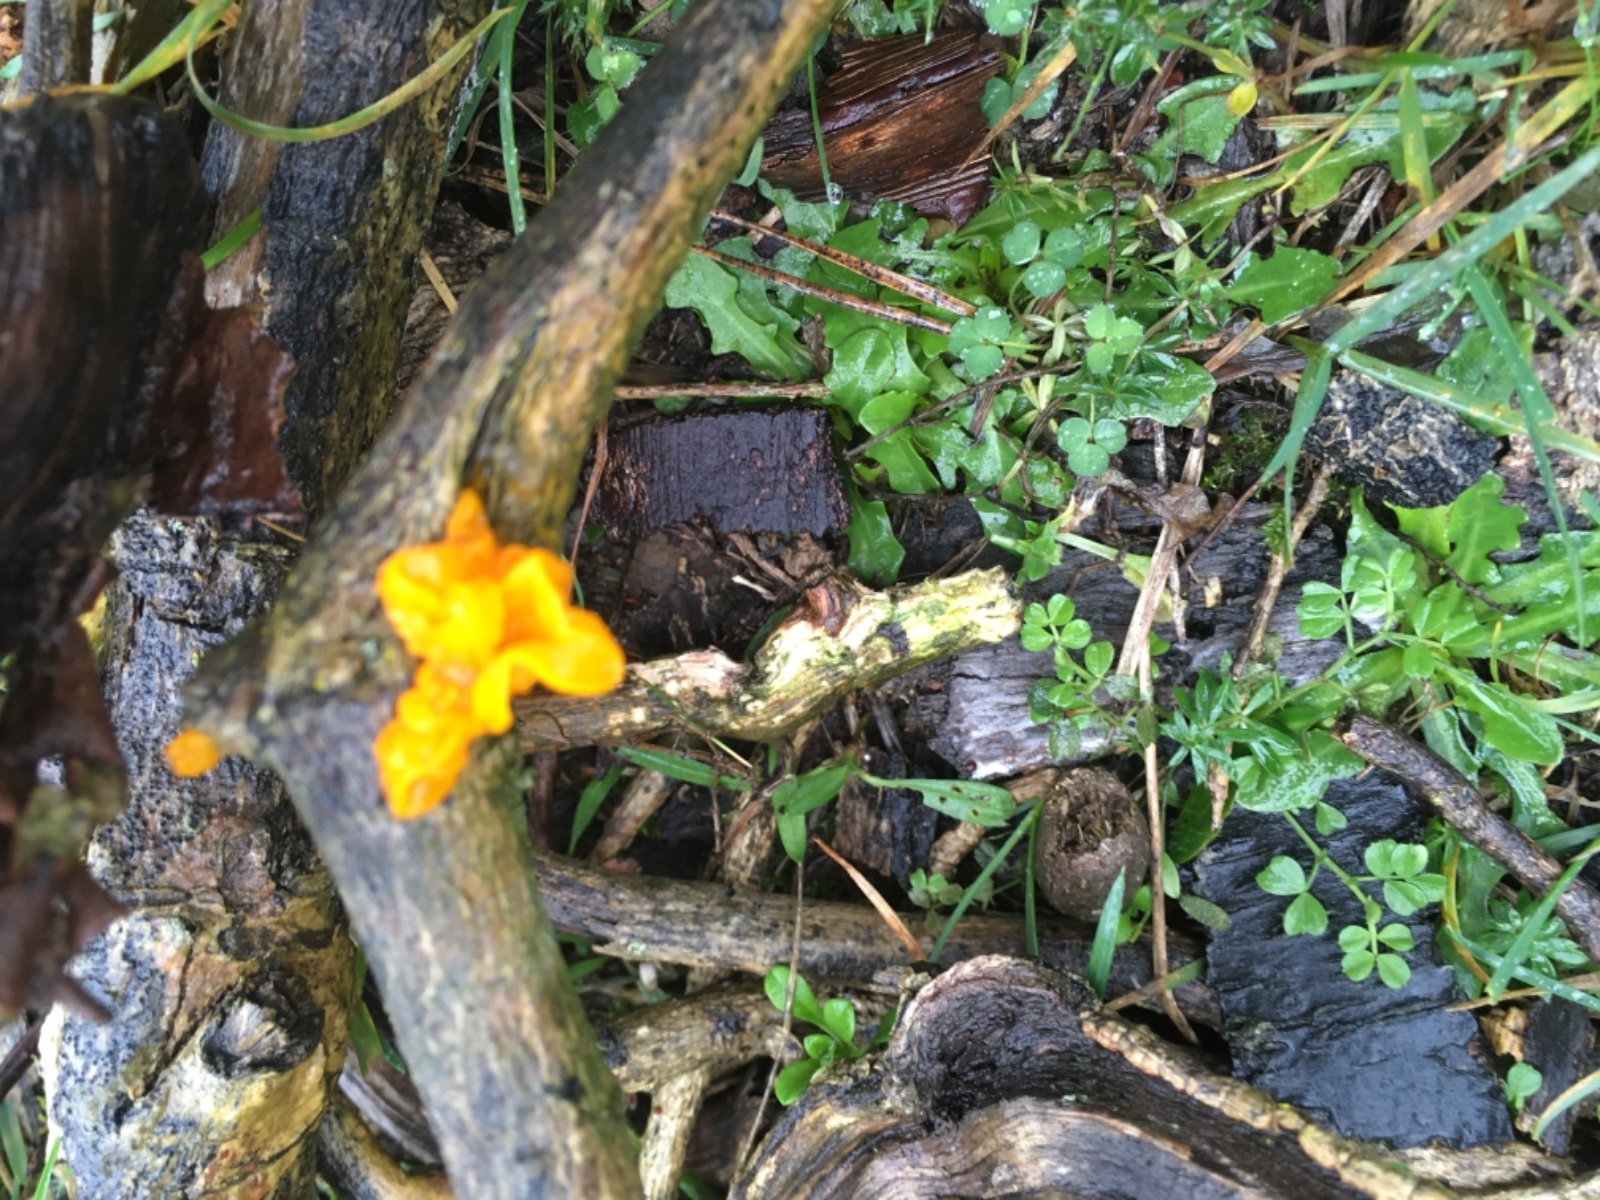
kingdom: Fungi
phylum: Basidiomycota
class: Tremellomycetes
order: Tremellales
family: Tremellaceae
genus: Tremella
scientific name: Tremella mesenterica
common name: gul bævresvamp
